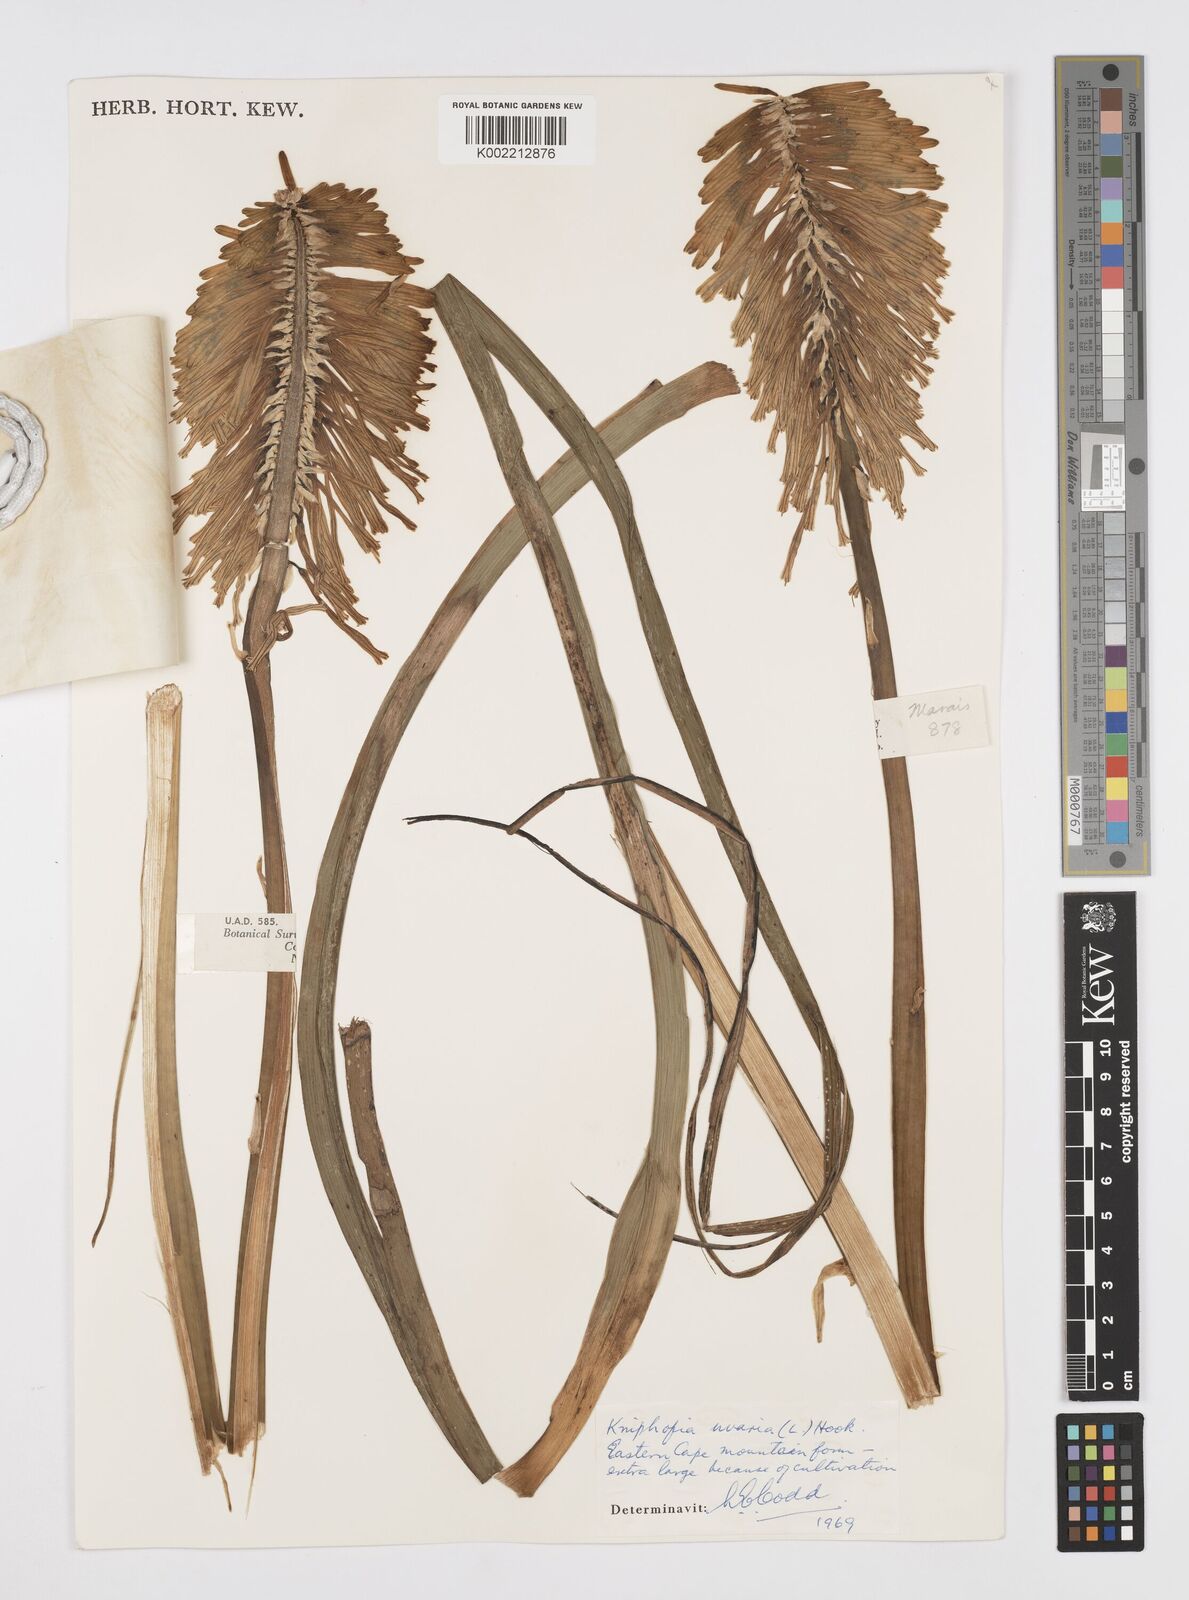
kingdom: Plantae
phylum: Tracheophyta
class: Liliopsida
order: Asparagales
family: Asphodelaceae
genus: Kniphofia
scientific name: Kniphofia uvaria
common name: Red-hot-poker
